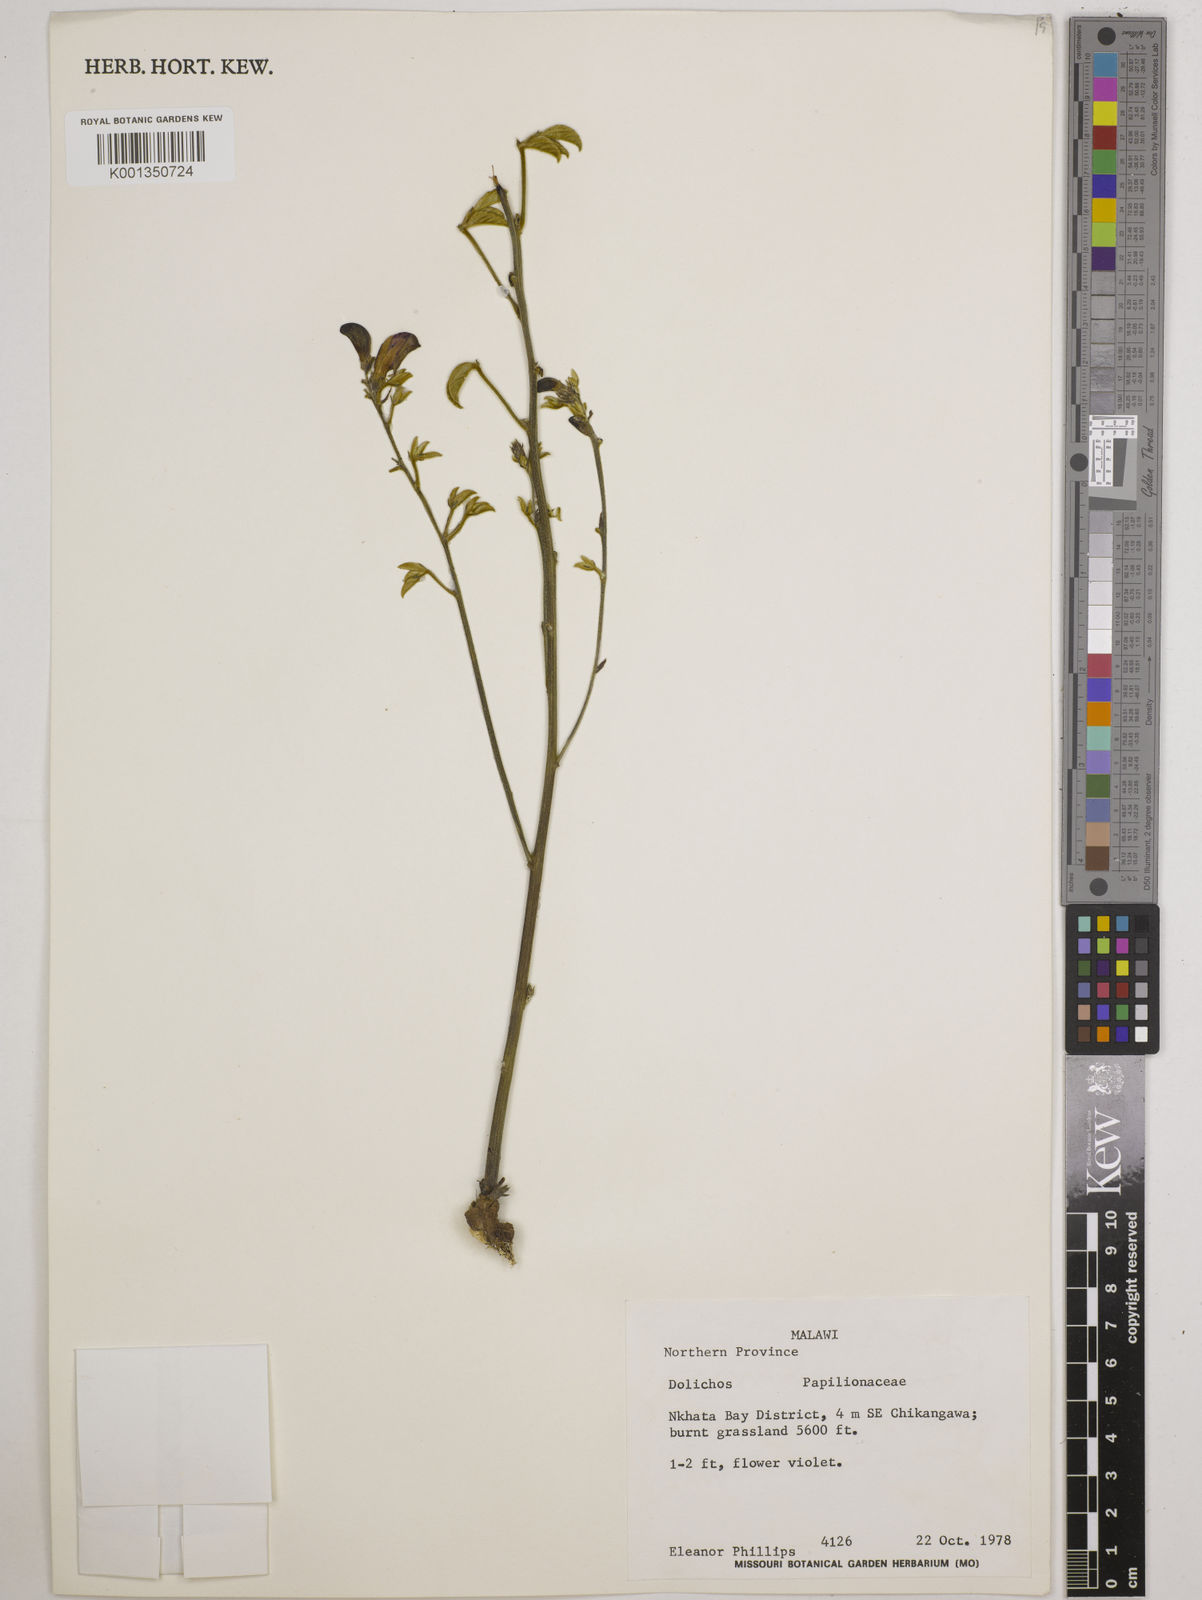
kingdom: Plantae
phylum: Tracheophyta
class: Magnoliopsida
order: Fabales
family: Fabaceae
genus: Dolichos
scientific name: Dolichos
